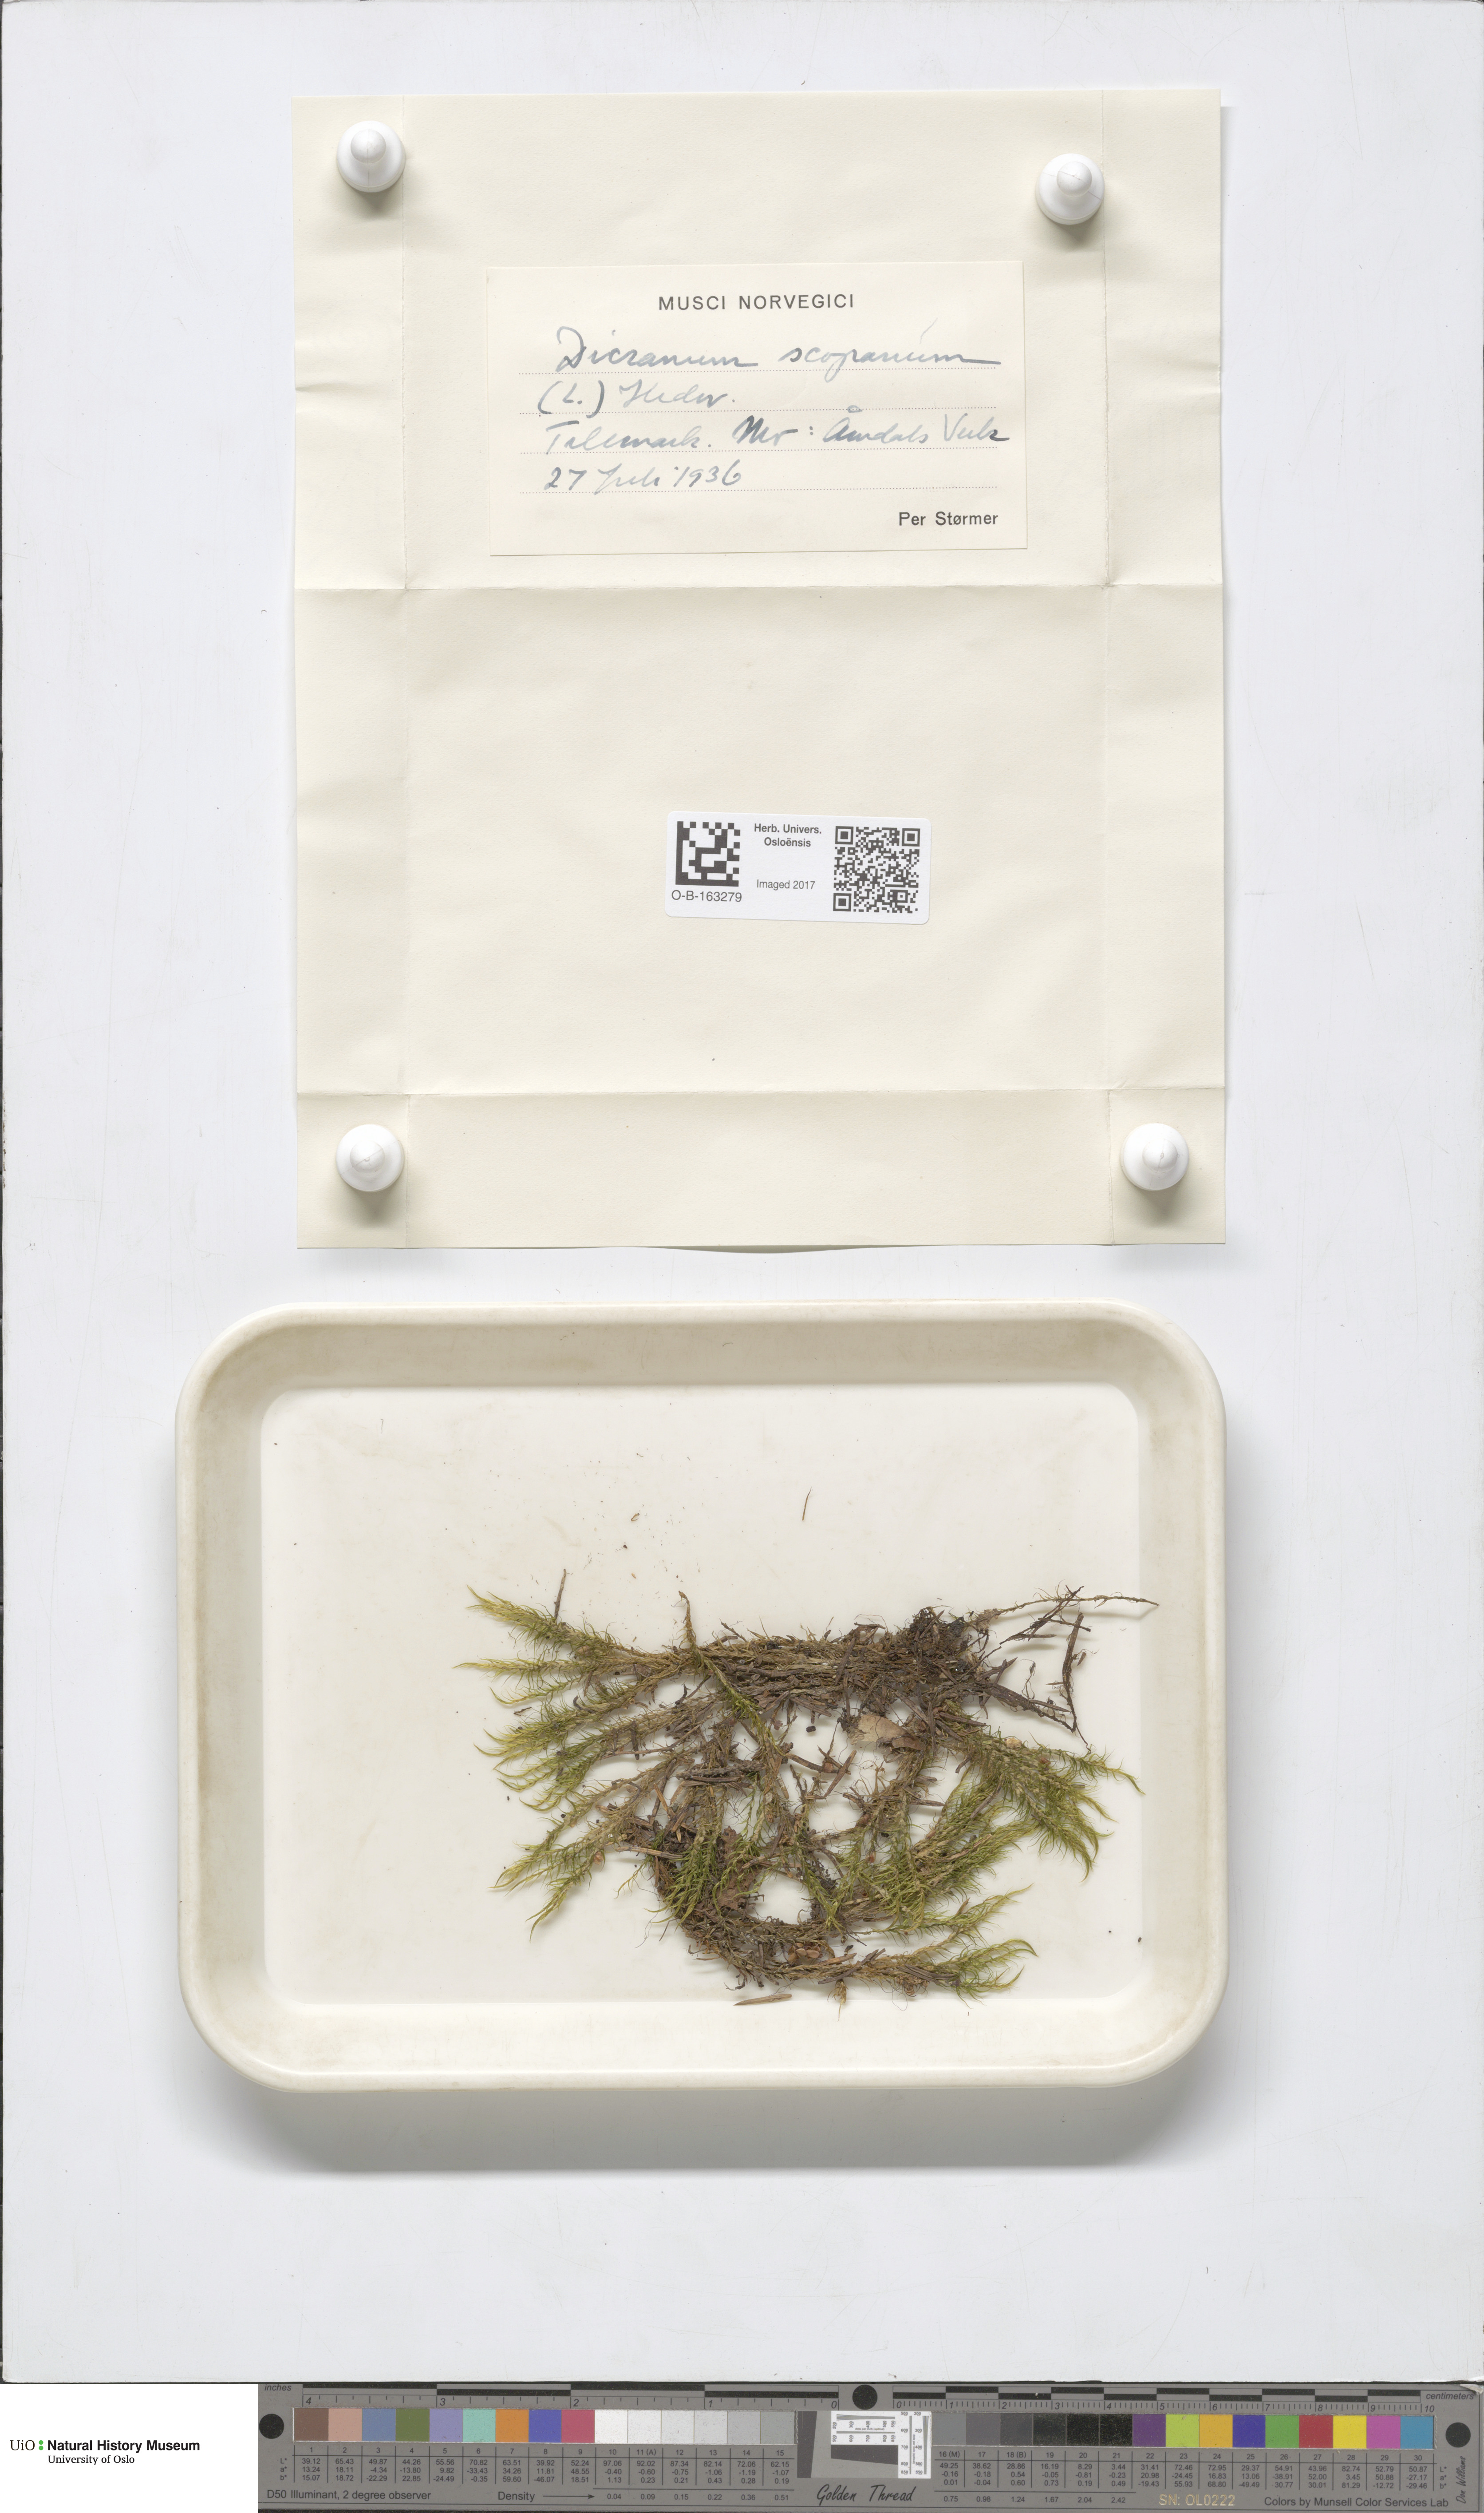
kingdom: Plantae
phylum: Bryophyta
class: Bryopsida
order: Dicranales
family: Dicranaceae
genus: Dicranum
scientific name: Dicranum scoparium
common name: Broom fork-moss
